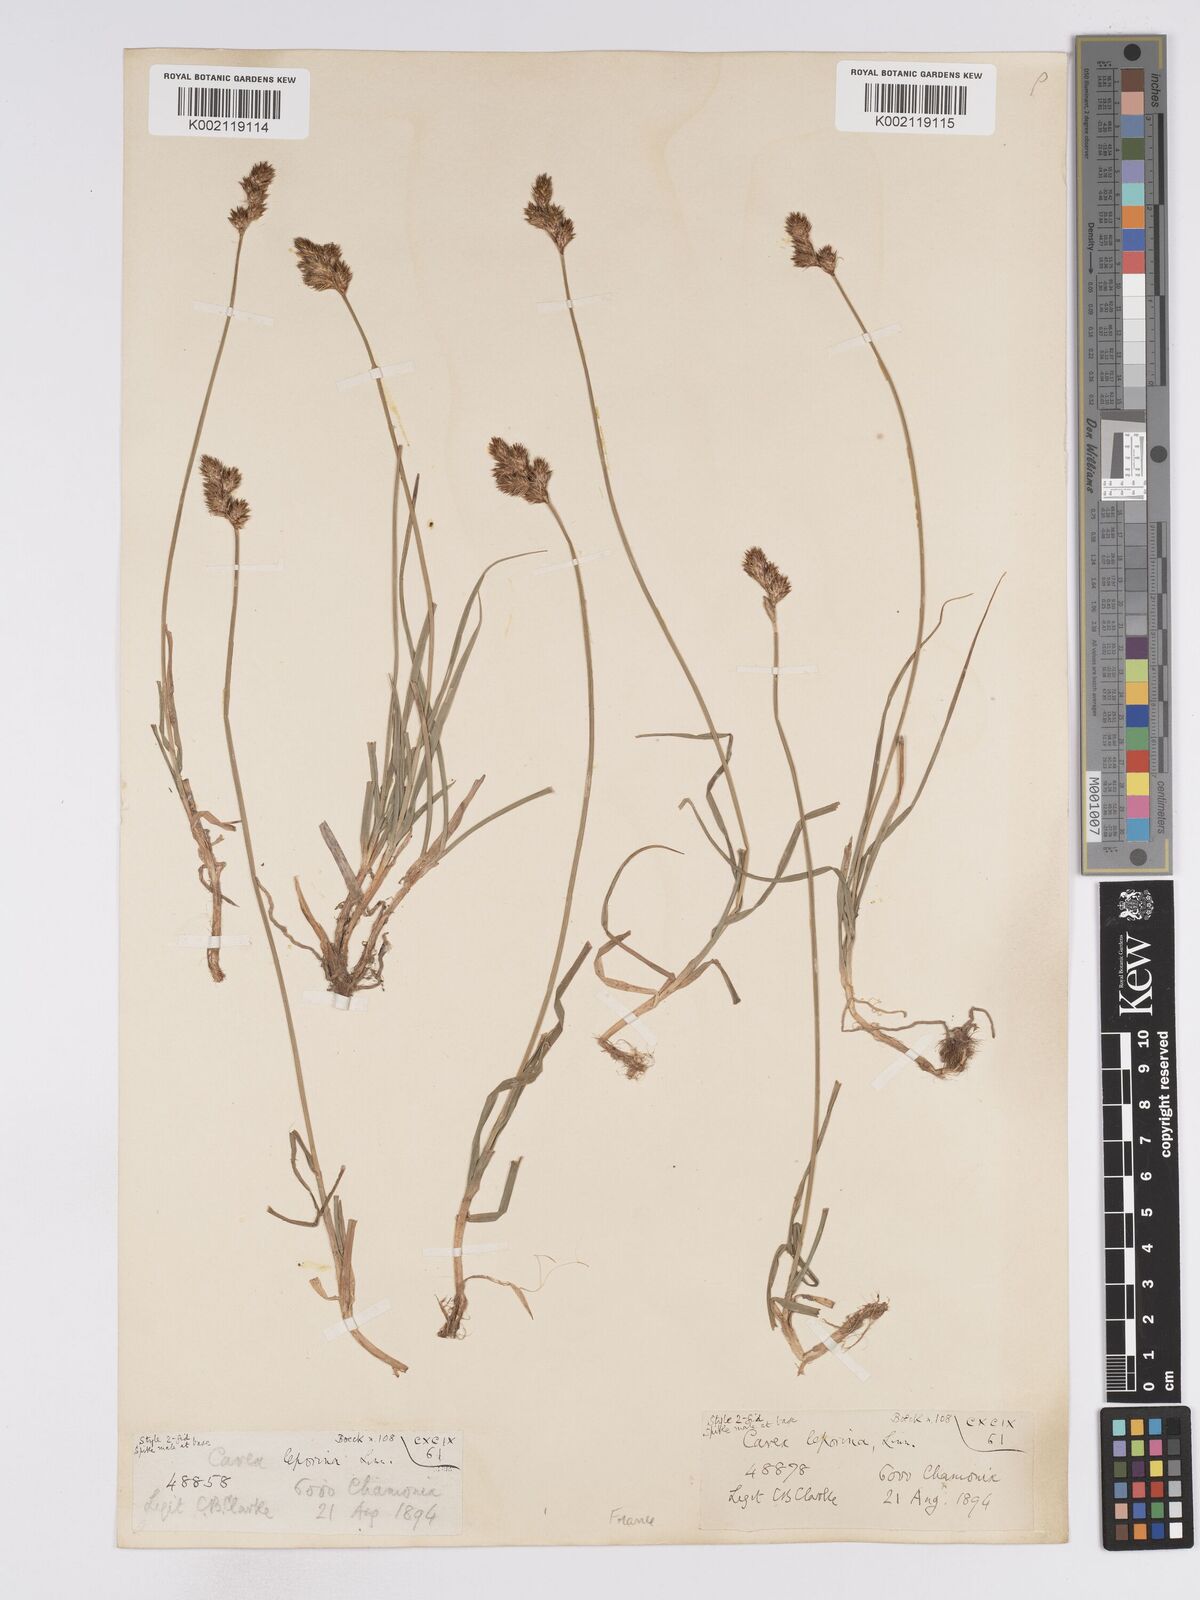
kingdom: Plantae
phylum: Tracheophyta
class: Liliopsida
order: Poales
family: Cyperaceae
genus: Carex
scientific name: Carex leporina
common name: Oval sedge
